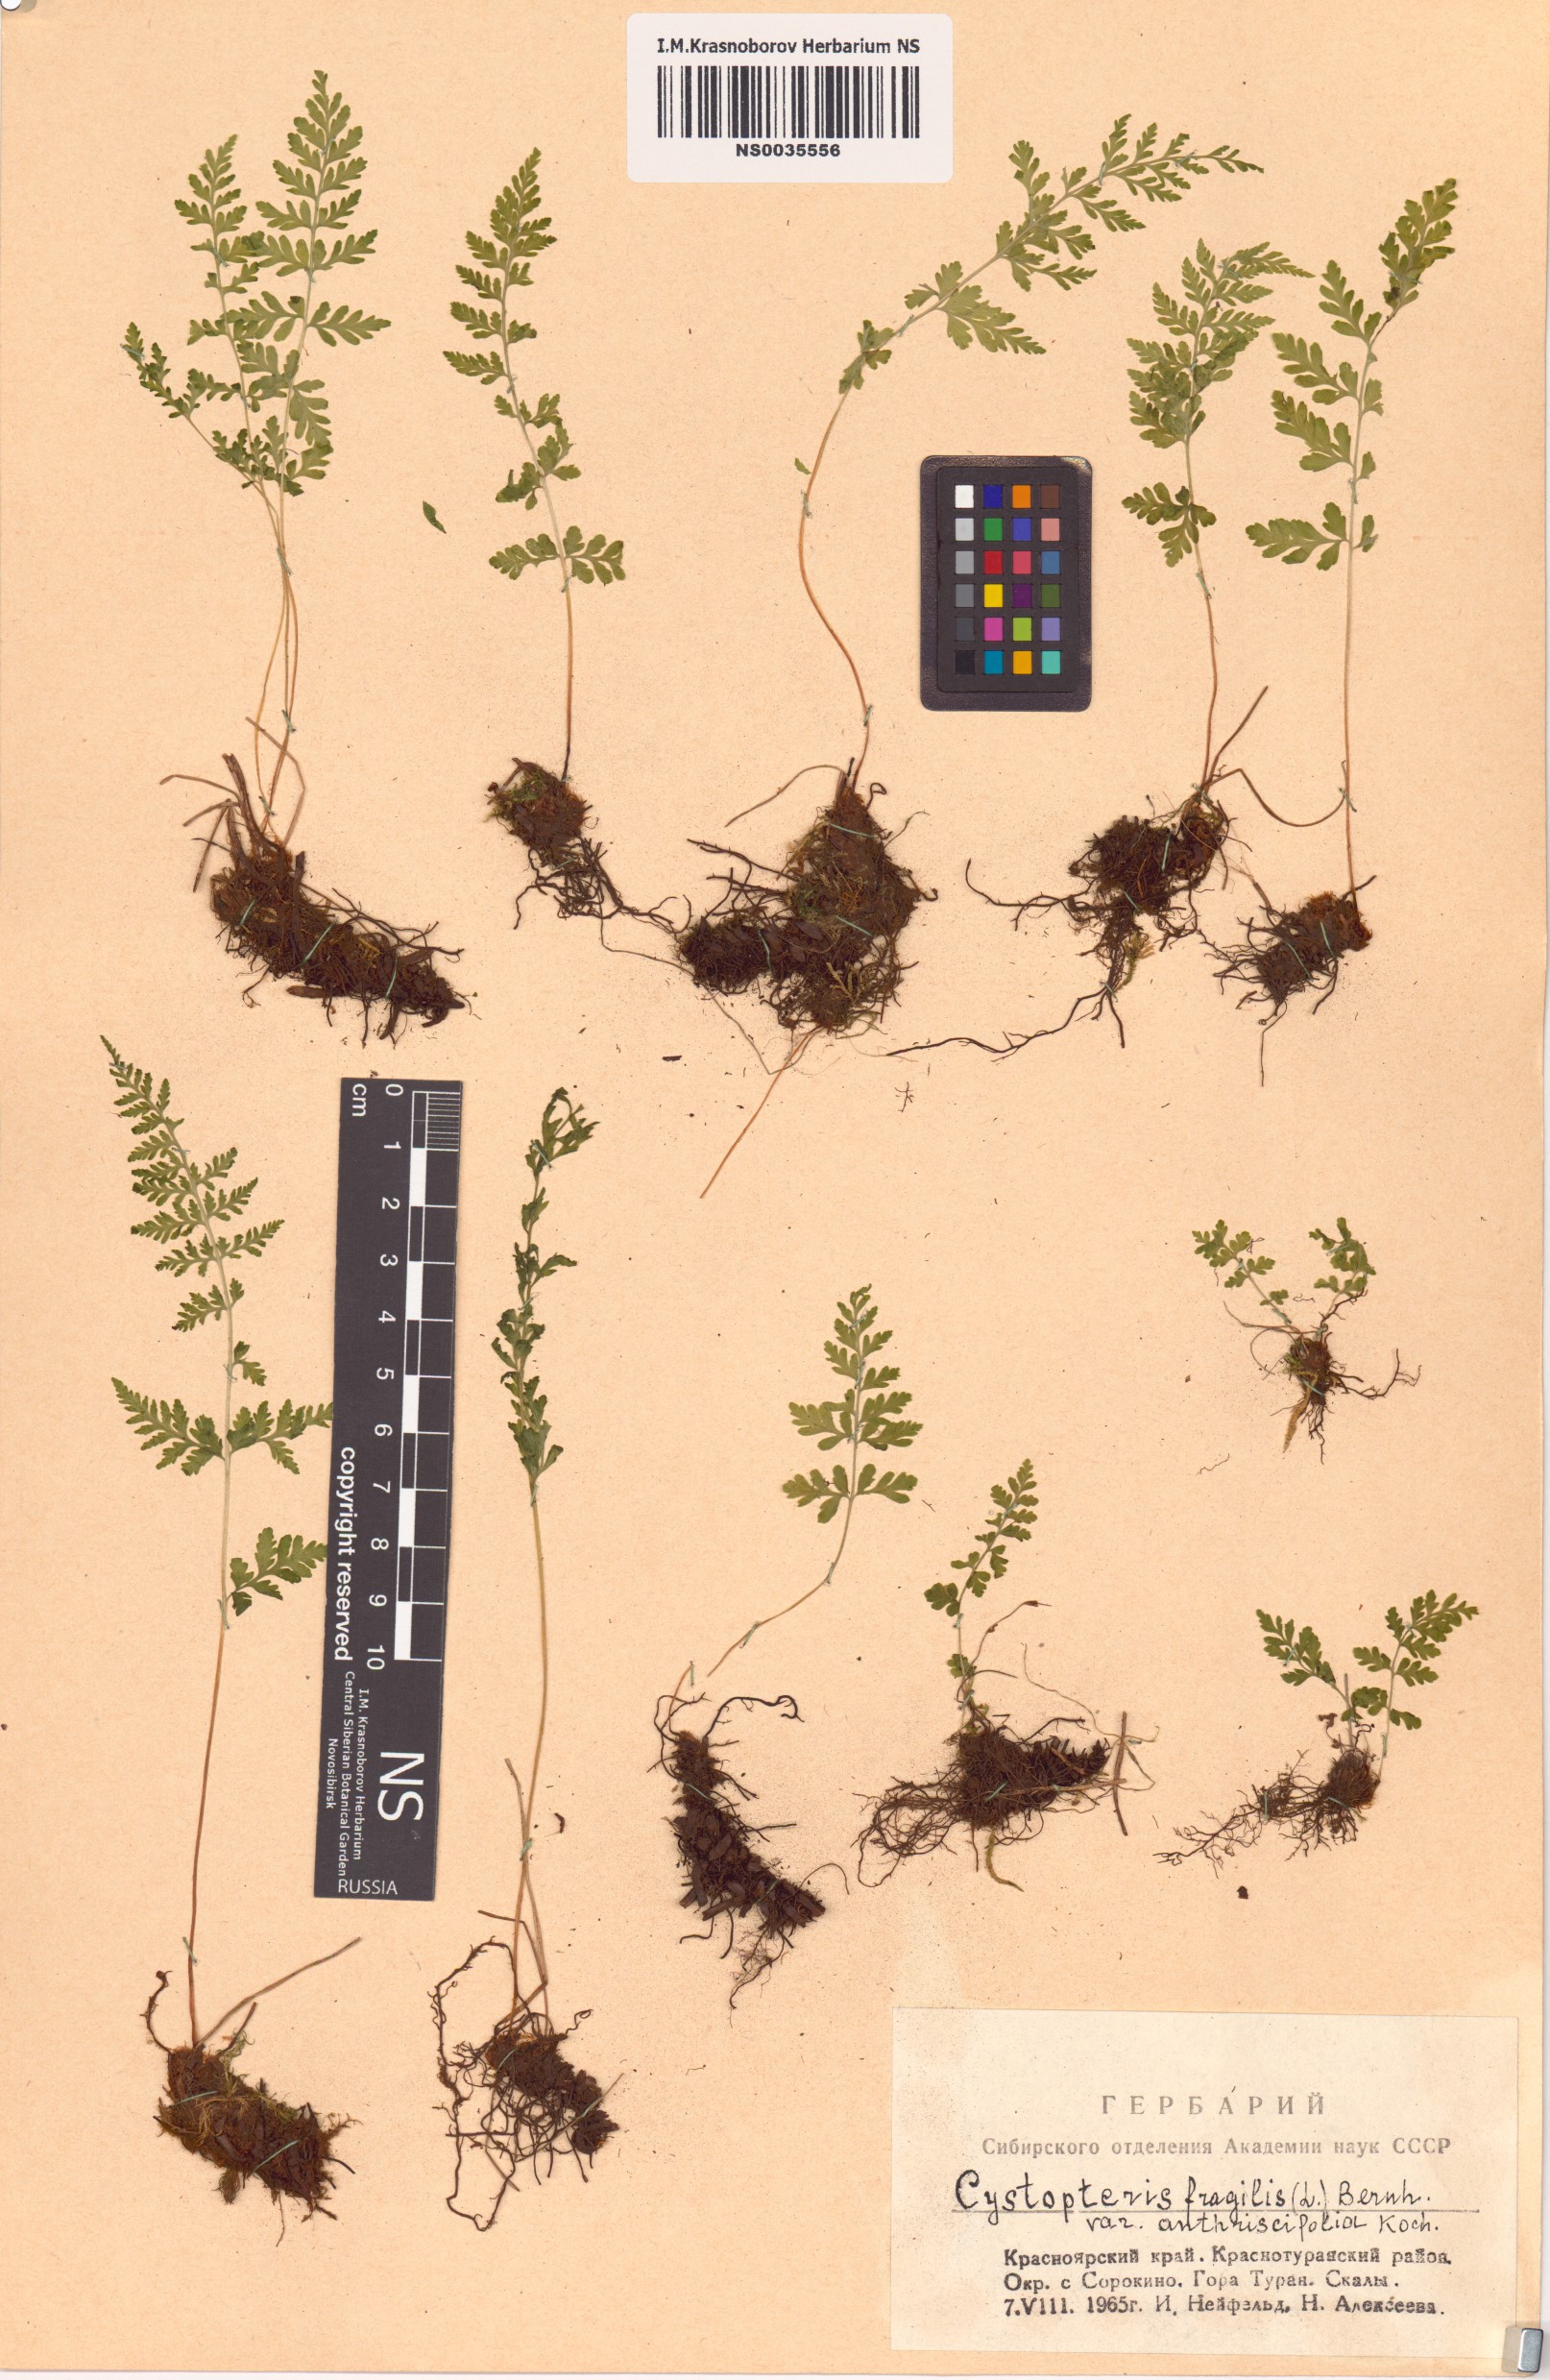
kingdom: Plantae
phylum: Tracheophyta
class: Polypodiopsida
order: Polypodiales
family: Cystopteridaceae
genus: Cystopteris
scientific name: Cystopteris fragilis
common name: Brittle bladder fern
